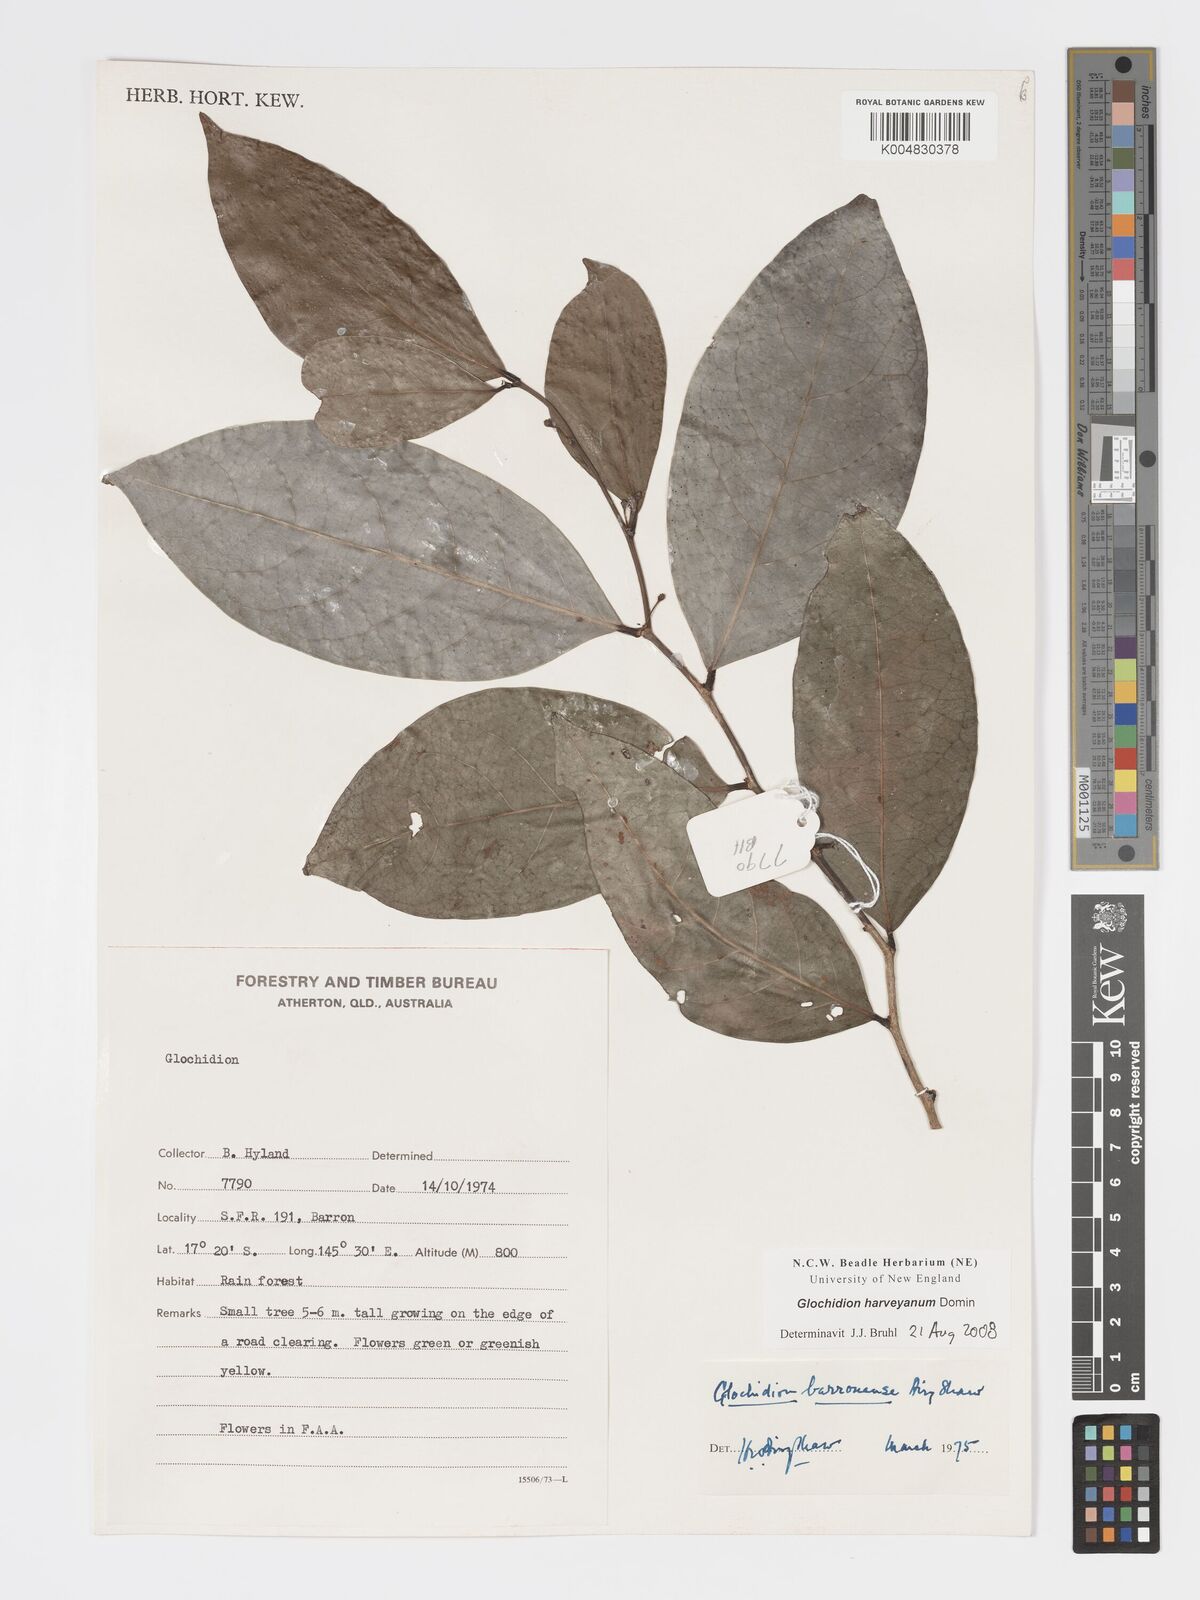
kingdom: Plantae
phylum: Tracheophyta
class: Magnoliopsida
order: Malpighiales
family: Phyllanthaceae
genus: Glochidion
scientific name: Glochidion harveyanum
